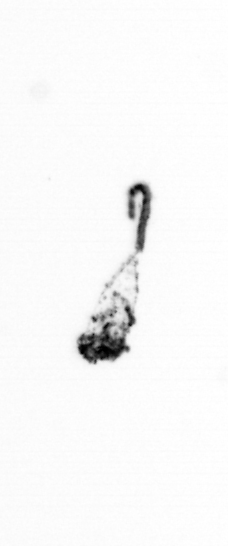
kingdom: Animalia
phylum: Arthropoda
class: Maxillopoda
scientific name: Maxillopoda
